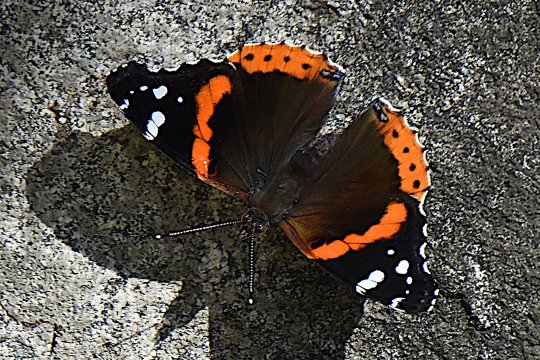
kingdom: Animalia
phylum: Arthropoda
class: Insecta
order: Lepidoptera
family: Nymphalidae
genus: Vanessa
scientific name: Vanessa atalanta
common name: Red Admiral
